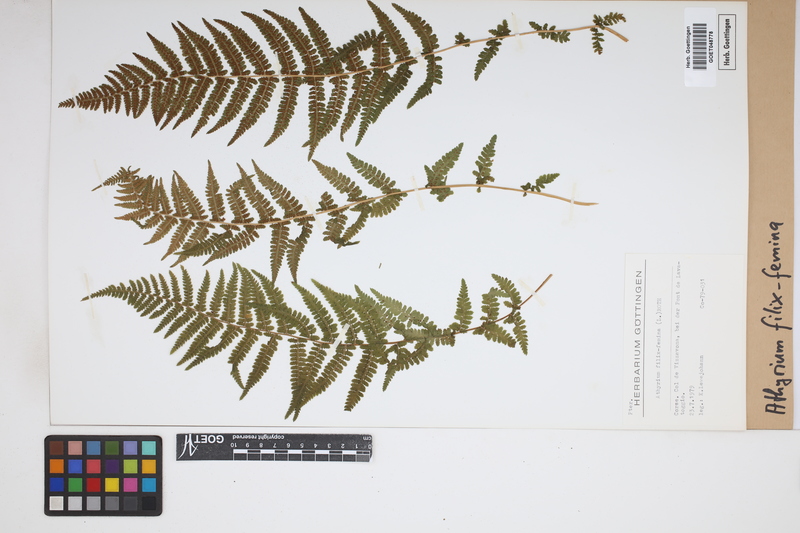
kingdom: Plantae
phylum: Tracheophyta
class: Polypodiopsida
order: Polypodiales
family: Athyriaceae
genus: Athyrium
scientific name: Athyrium filix-femina
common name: Lady fern
